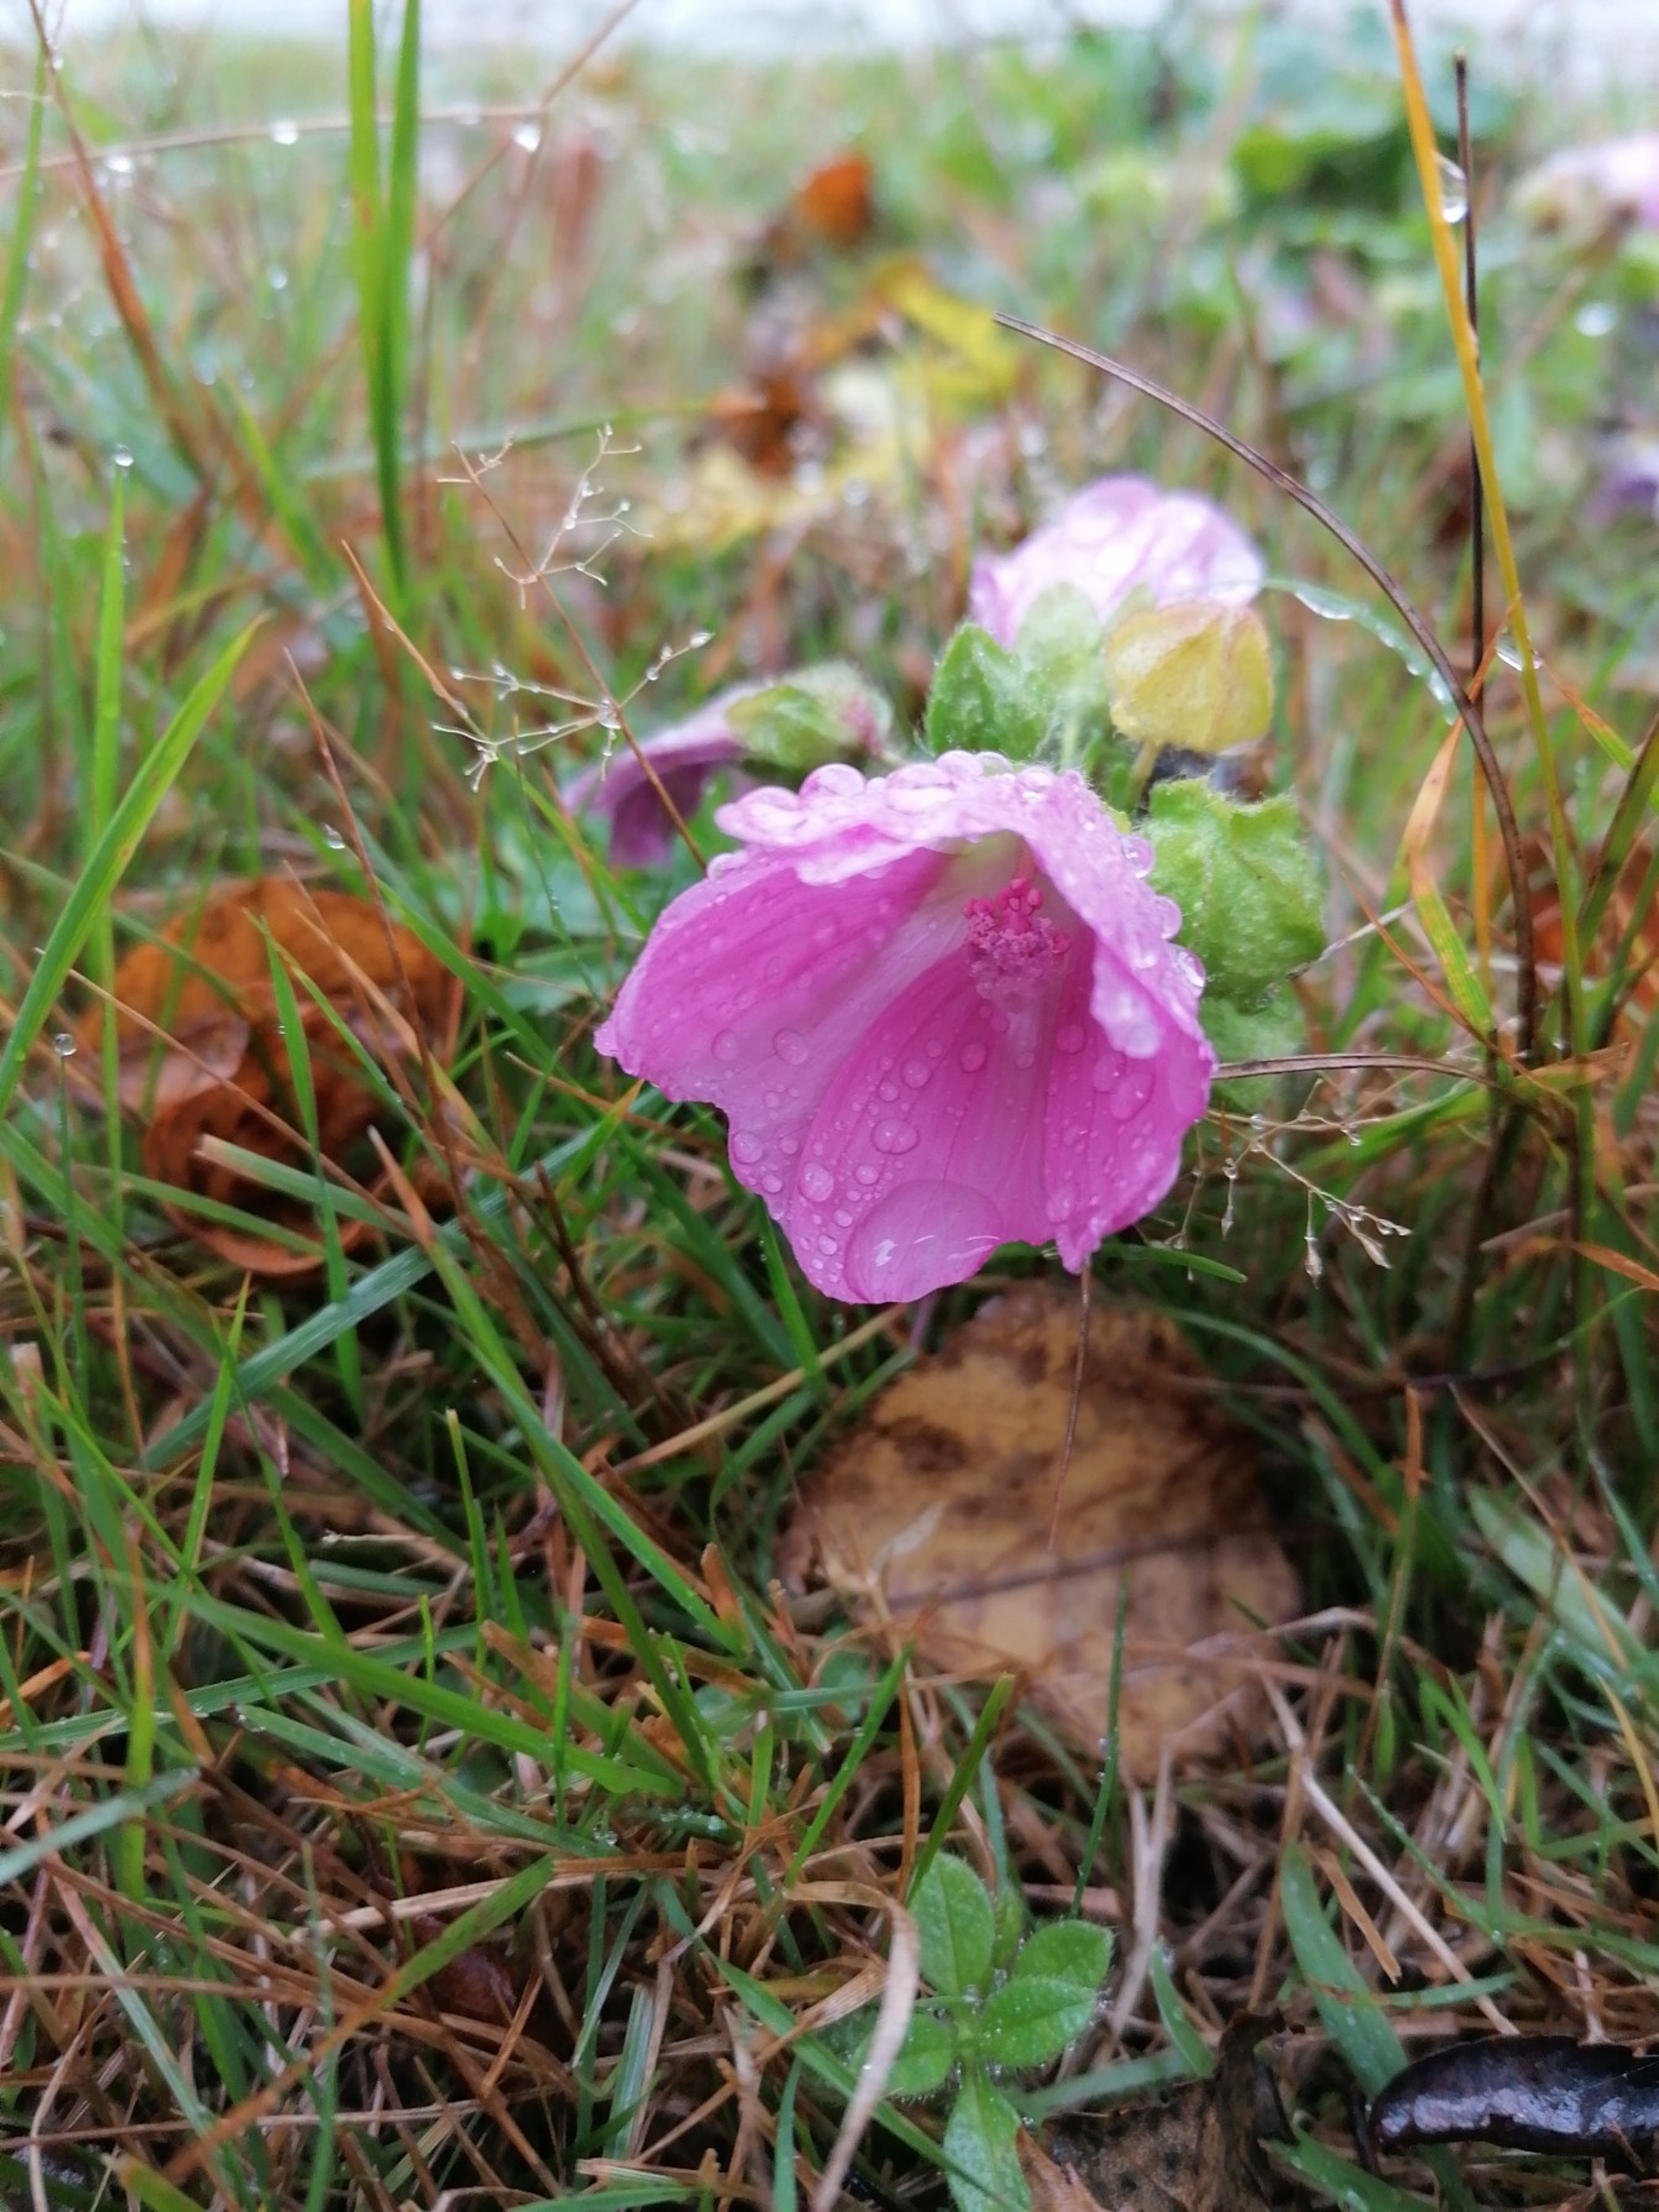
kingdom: Plantae
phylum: Tracheophyta
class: Magnoliopsida
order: Malvales
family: Malvaceae
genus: Malva
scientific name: Malva moschata
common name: Moskus-katost
